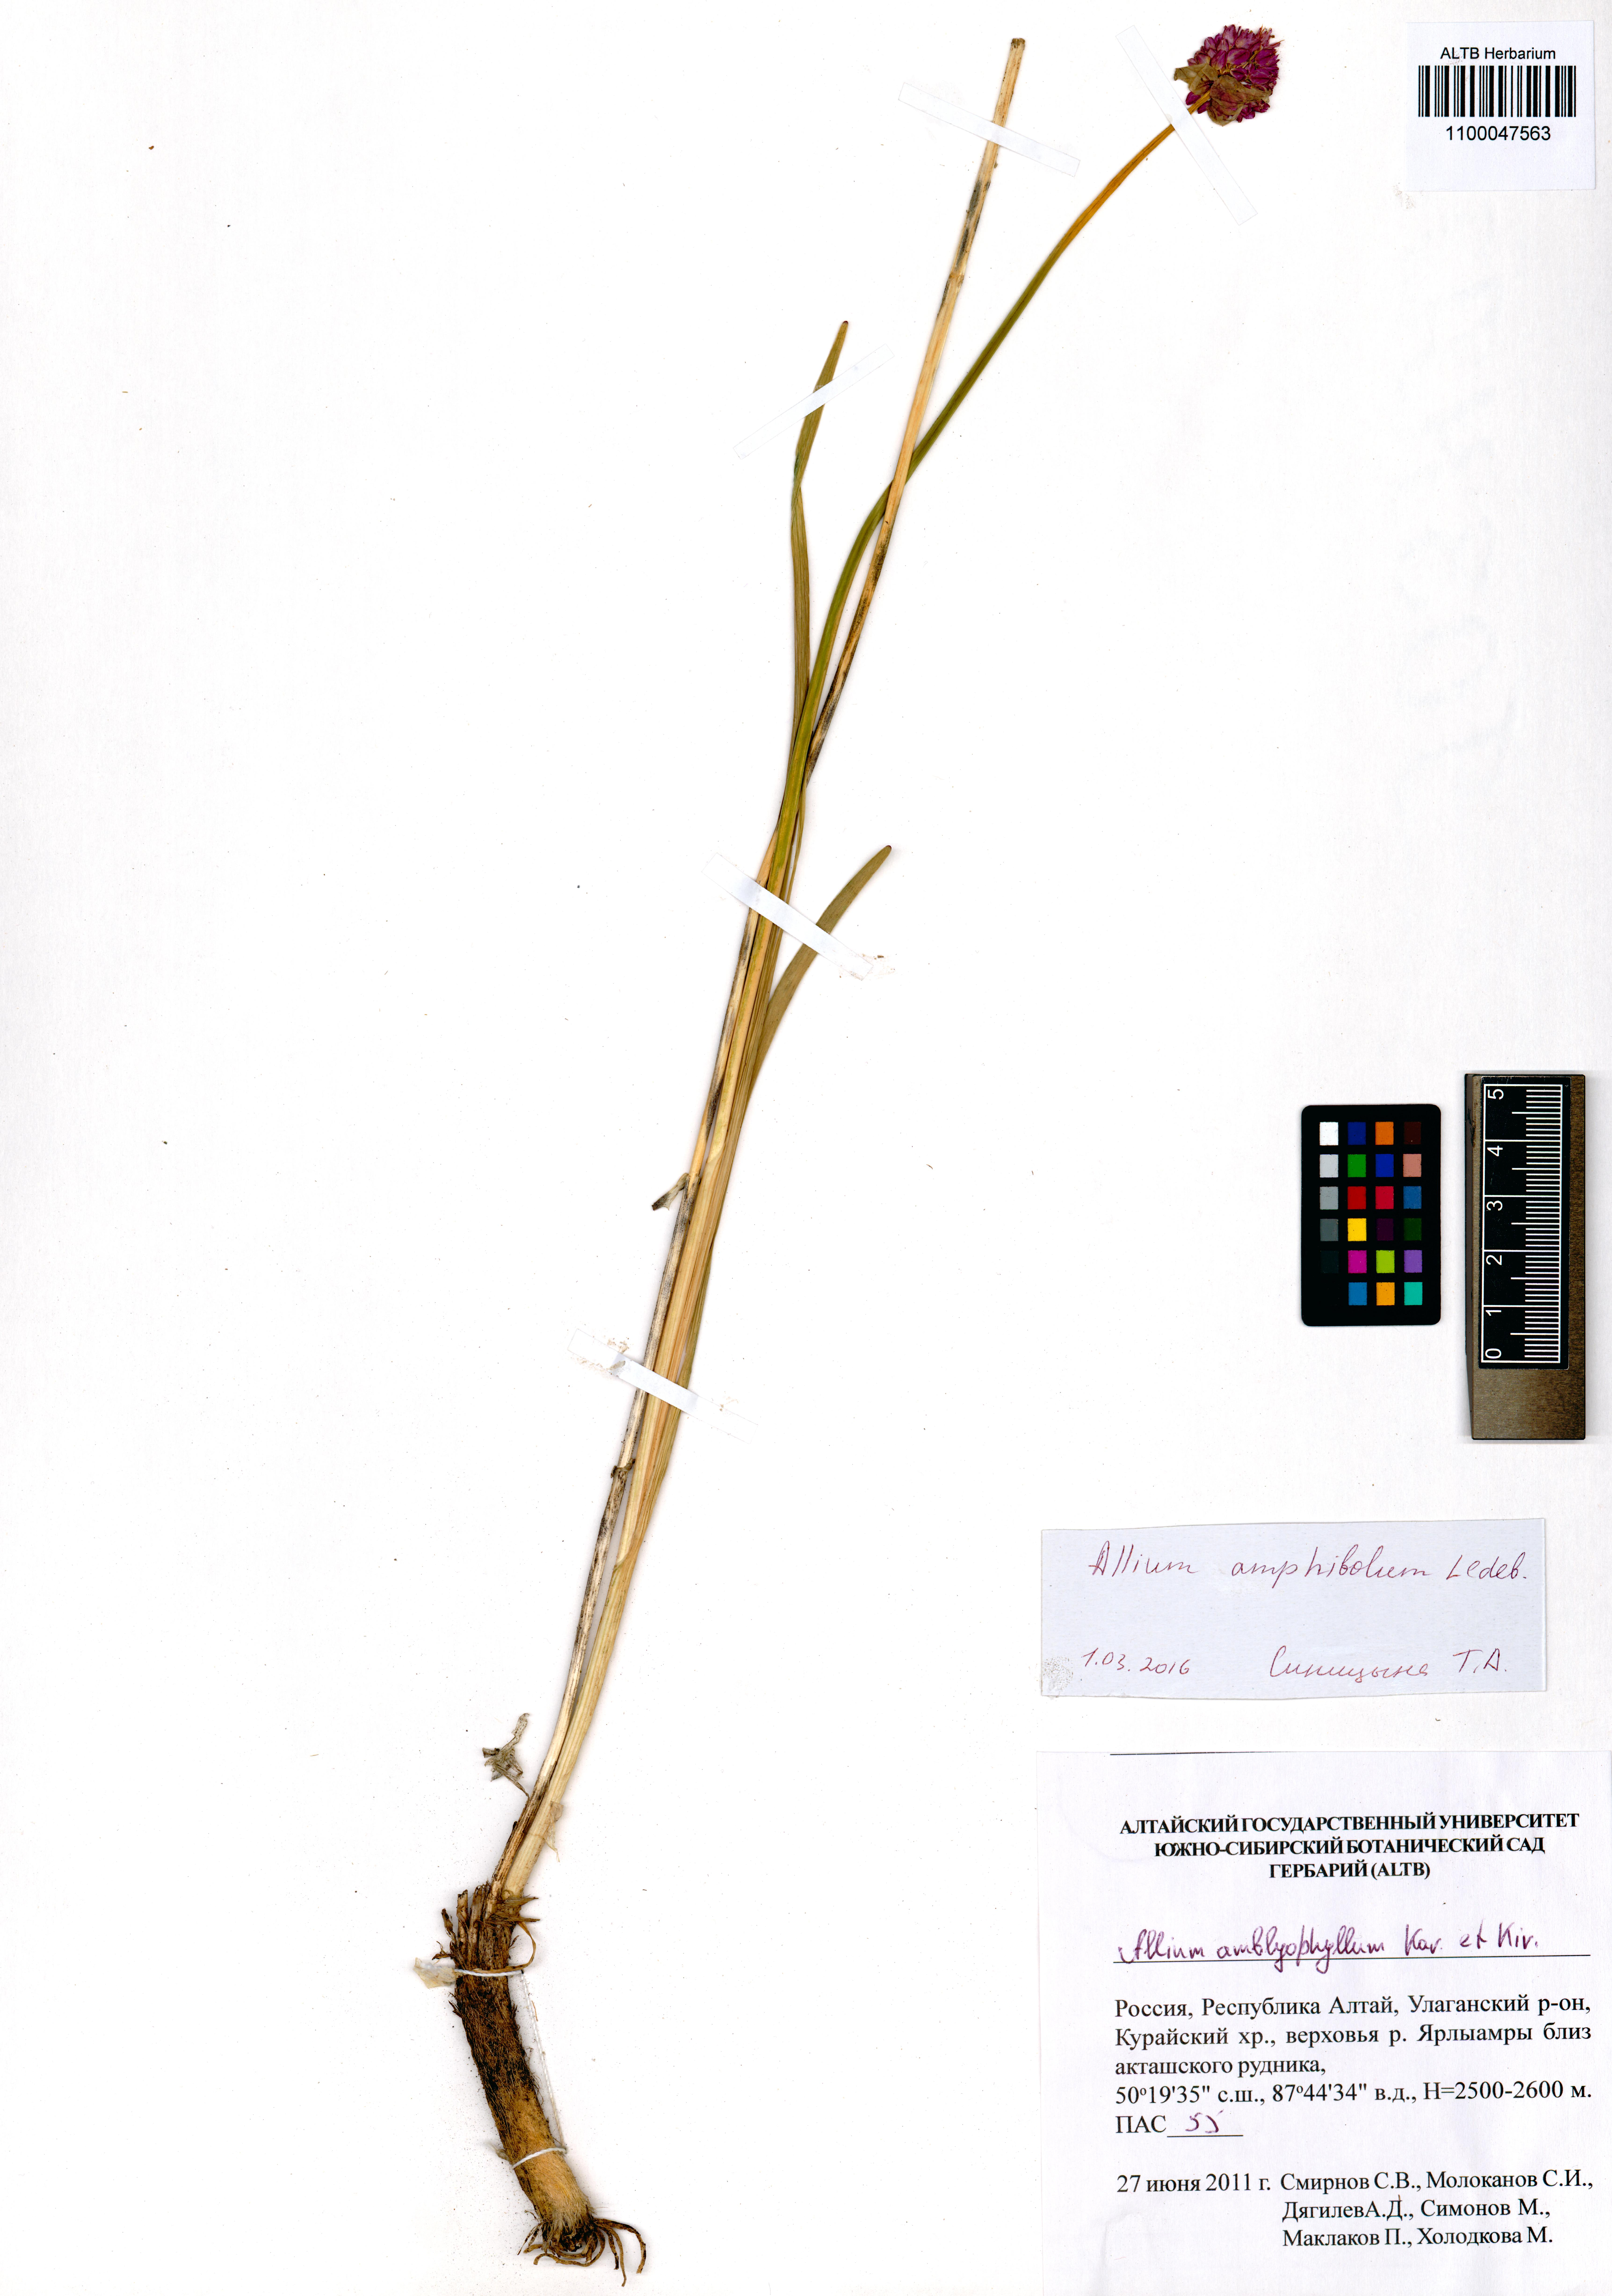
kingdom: Plantae
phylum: Tracheophyta
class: Liliopsida
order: Asparagales
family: Amaryllidaceae
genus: Allium
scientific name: Allium amphibolum
